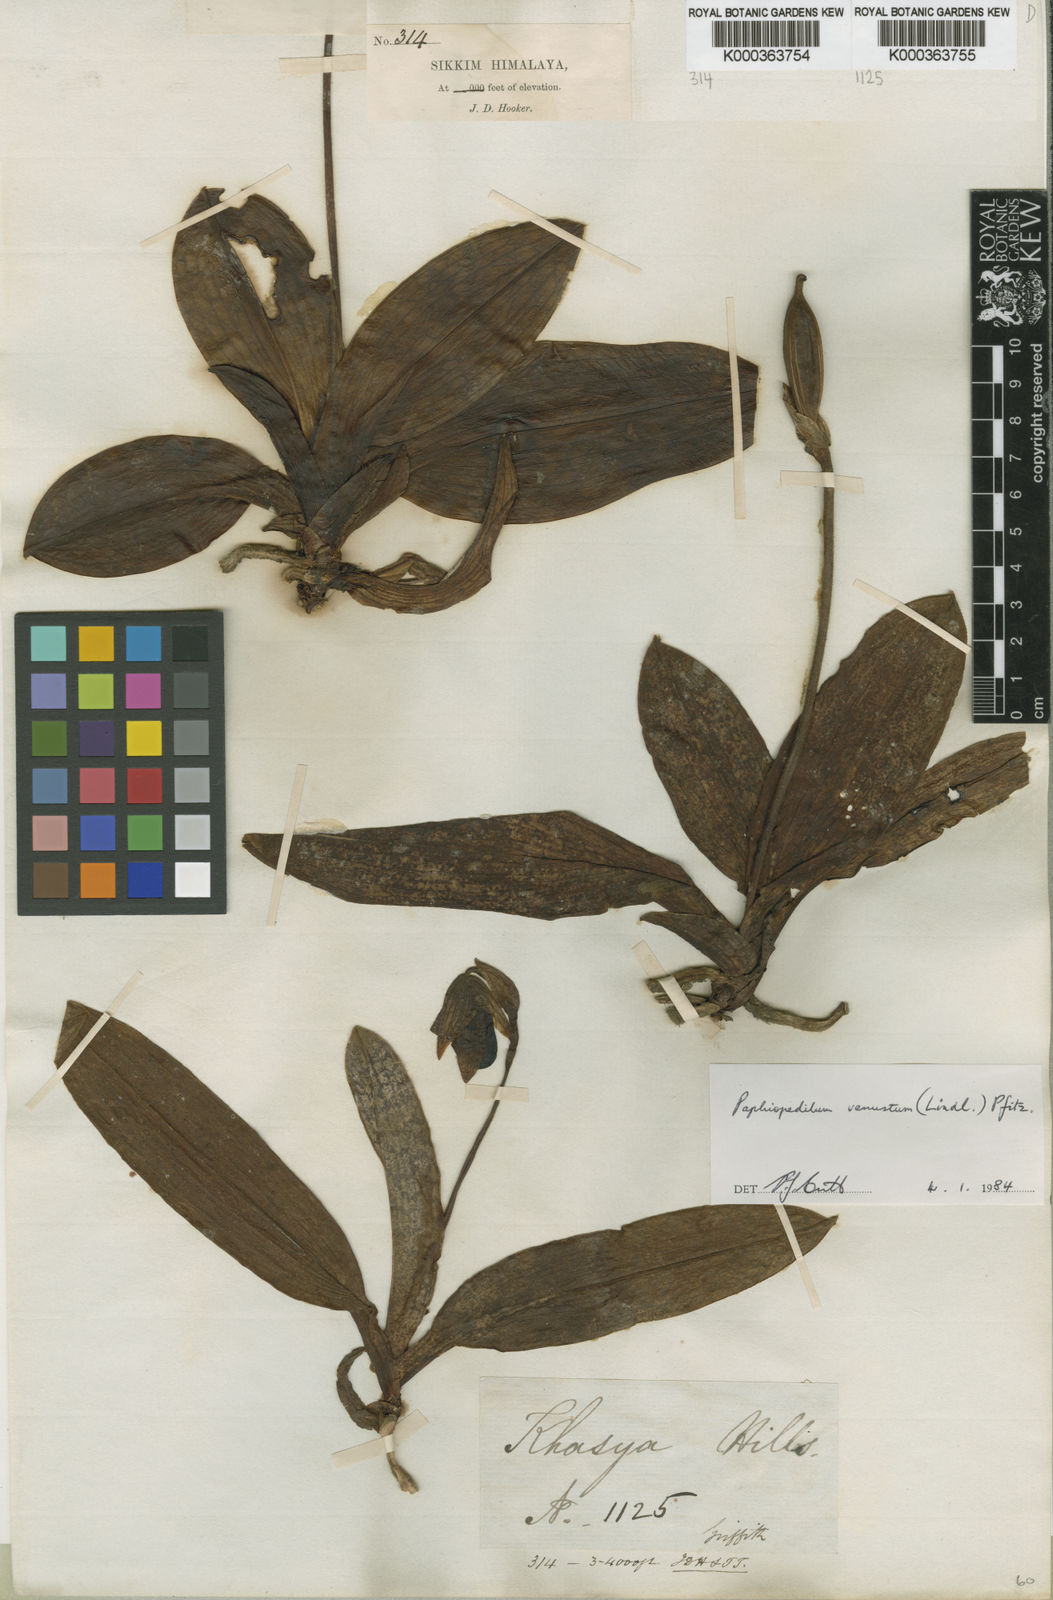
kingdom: Plantae
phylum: Tracheophyta
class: Liliopsida
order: Asparagales
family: Orchidaceae
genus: Paphiopedilum
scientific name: Paphiopedilum venustum
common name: Laddy's slipper orchid
